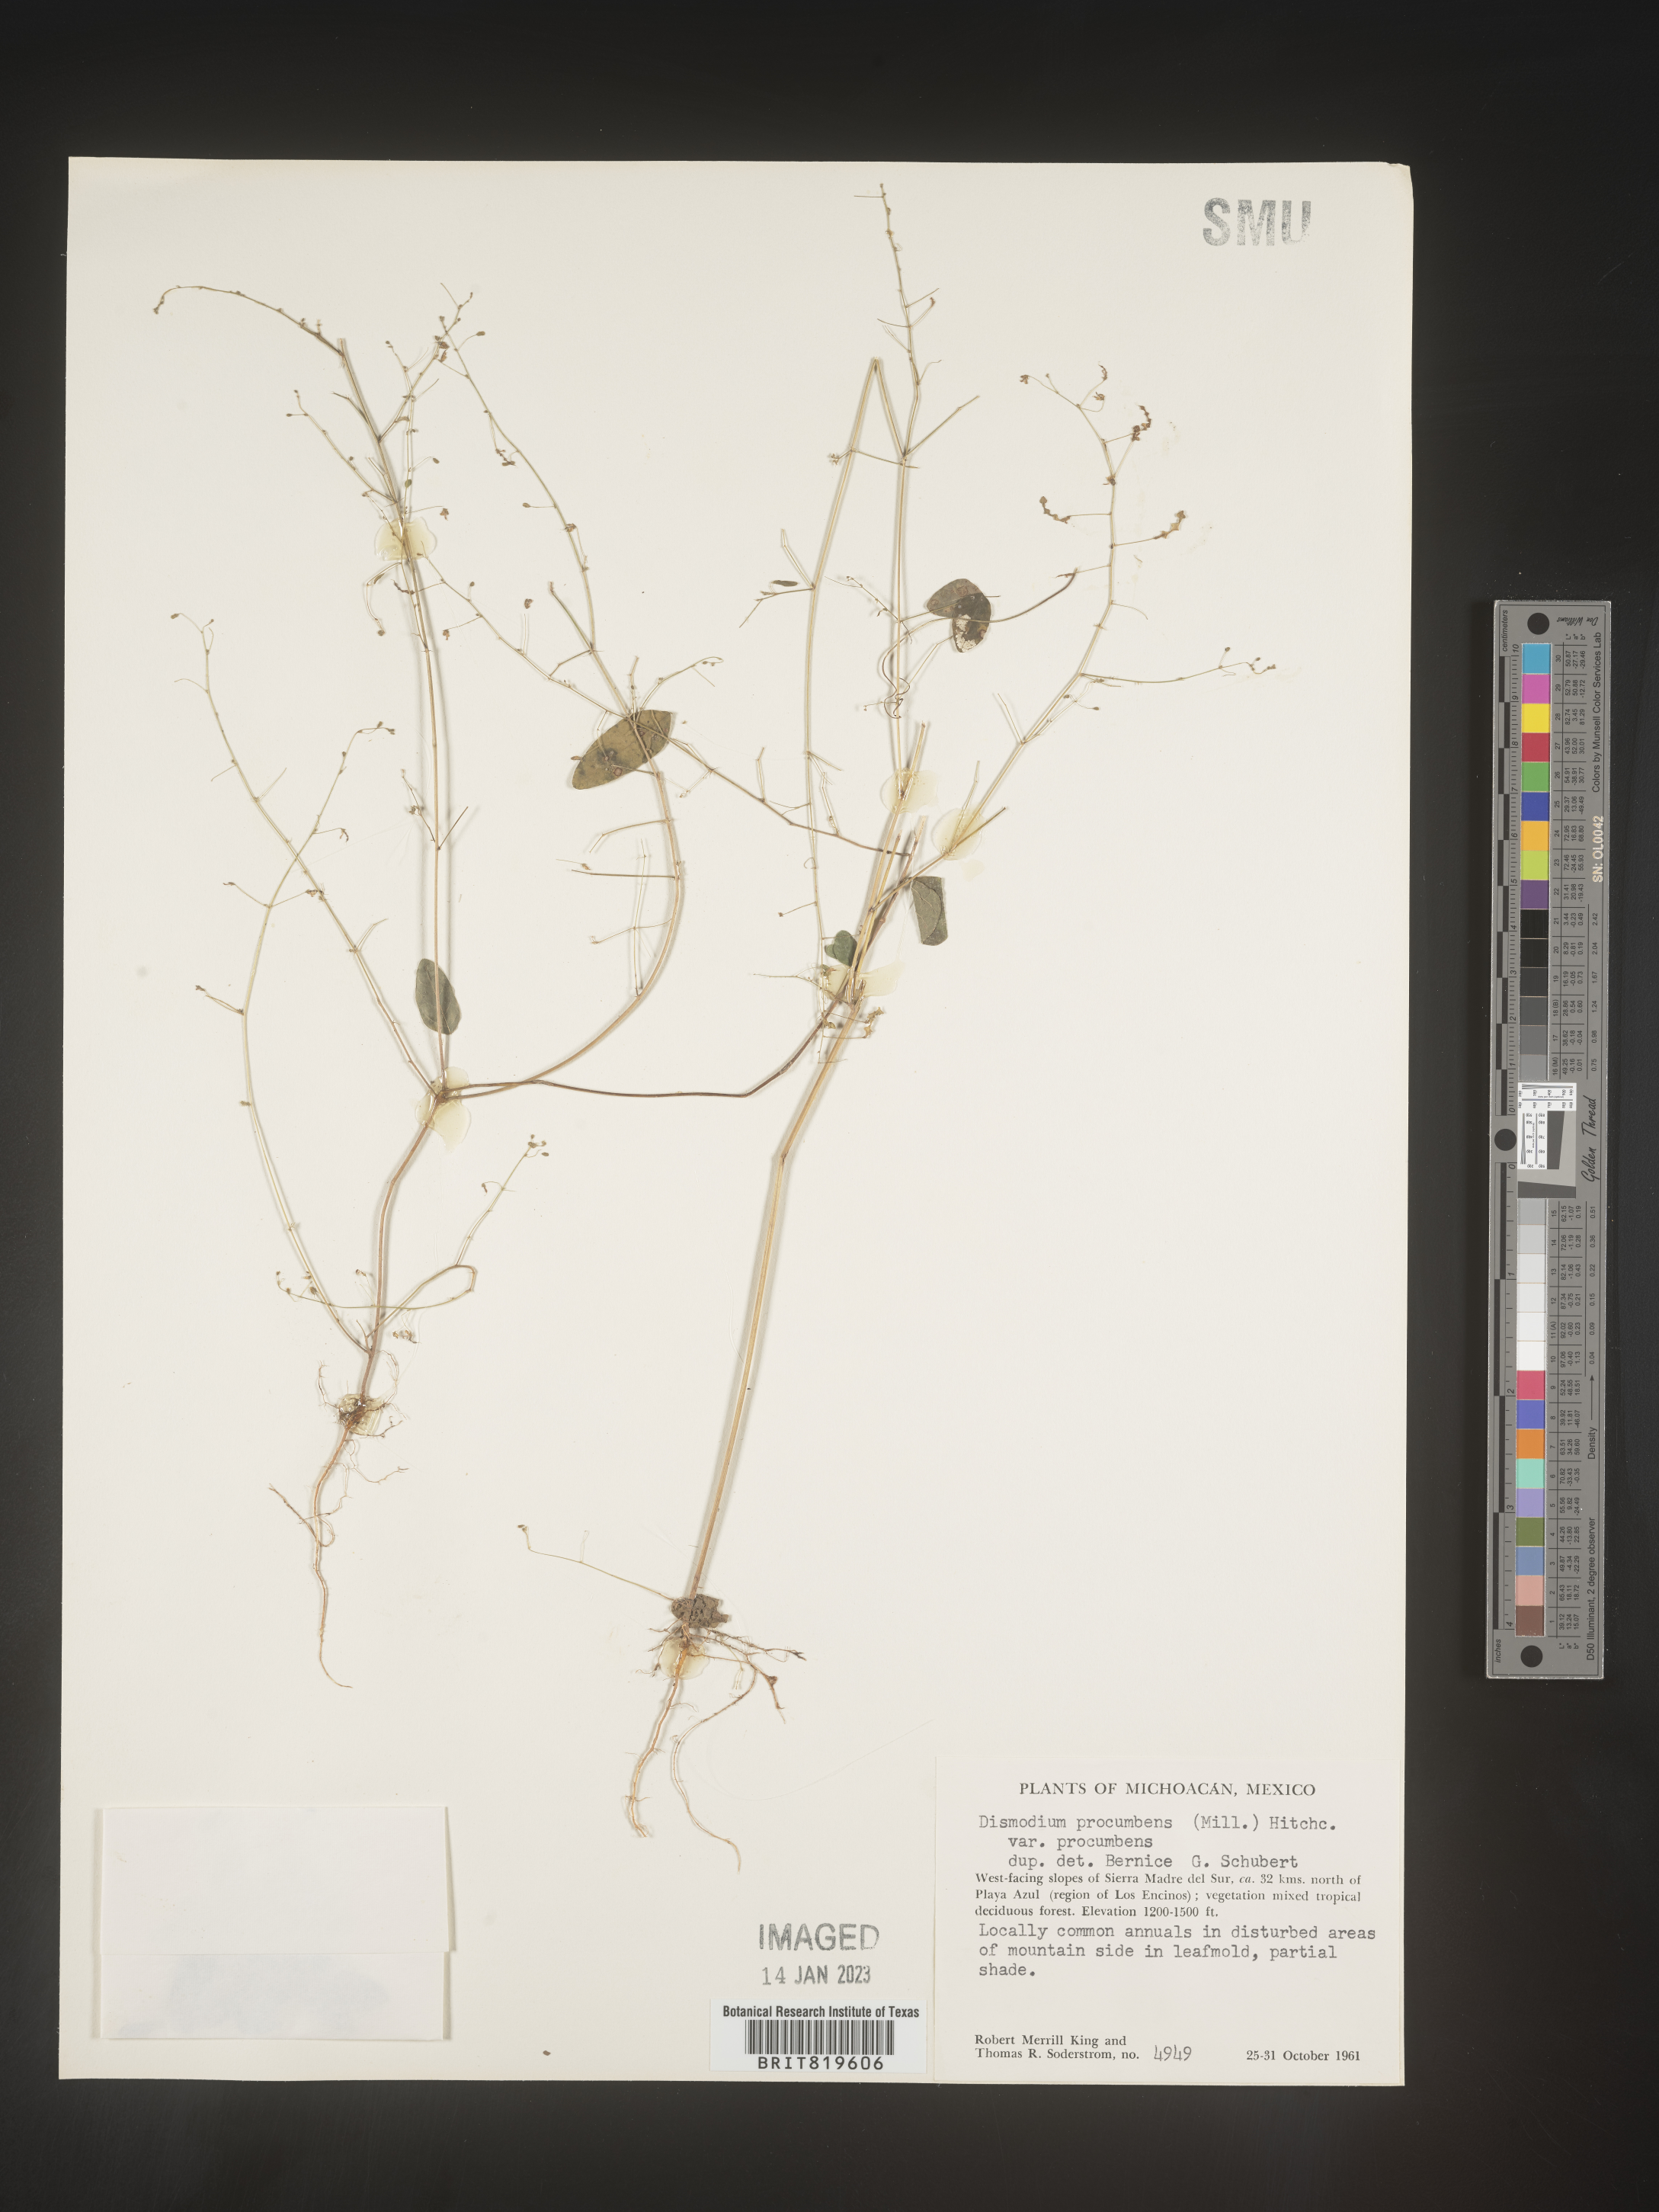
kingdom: Plantae
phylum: Tracheophyta
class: Magnoliopsida
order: Fabales
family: Fabaceae
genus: Desmodium
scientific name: Desmodium
